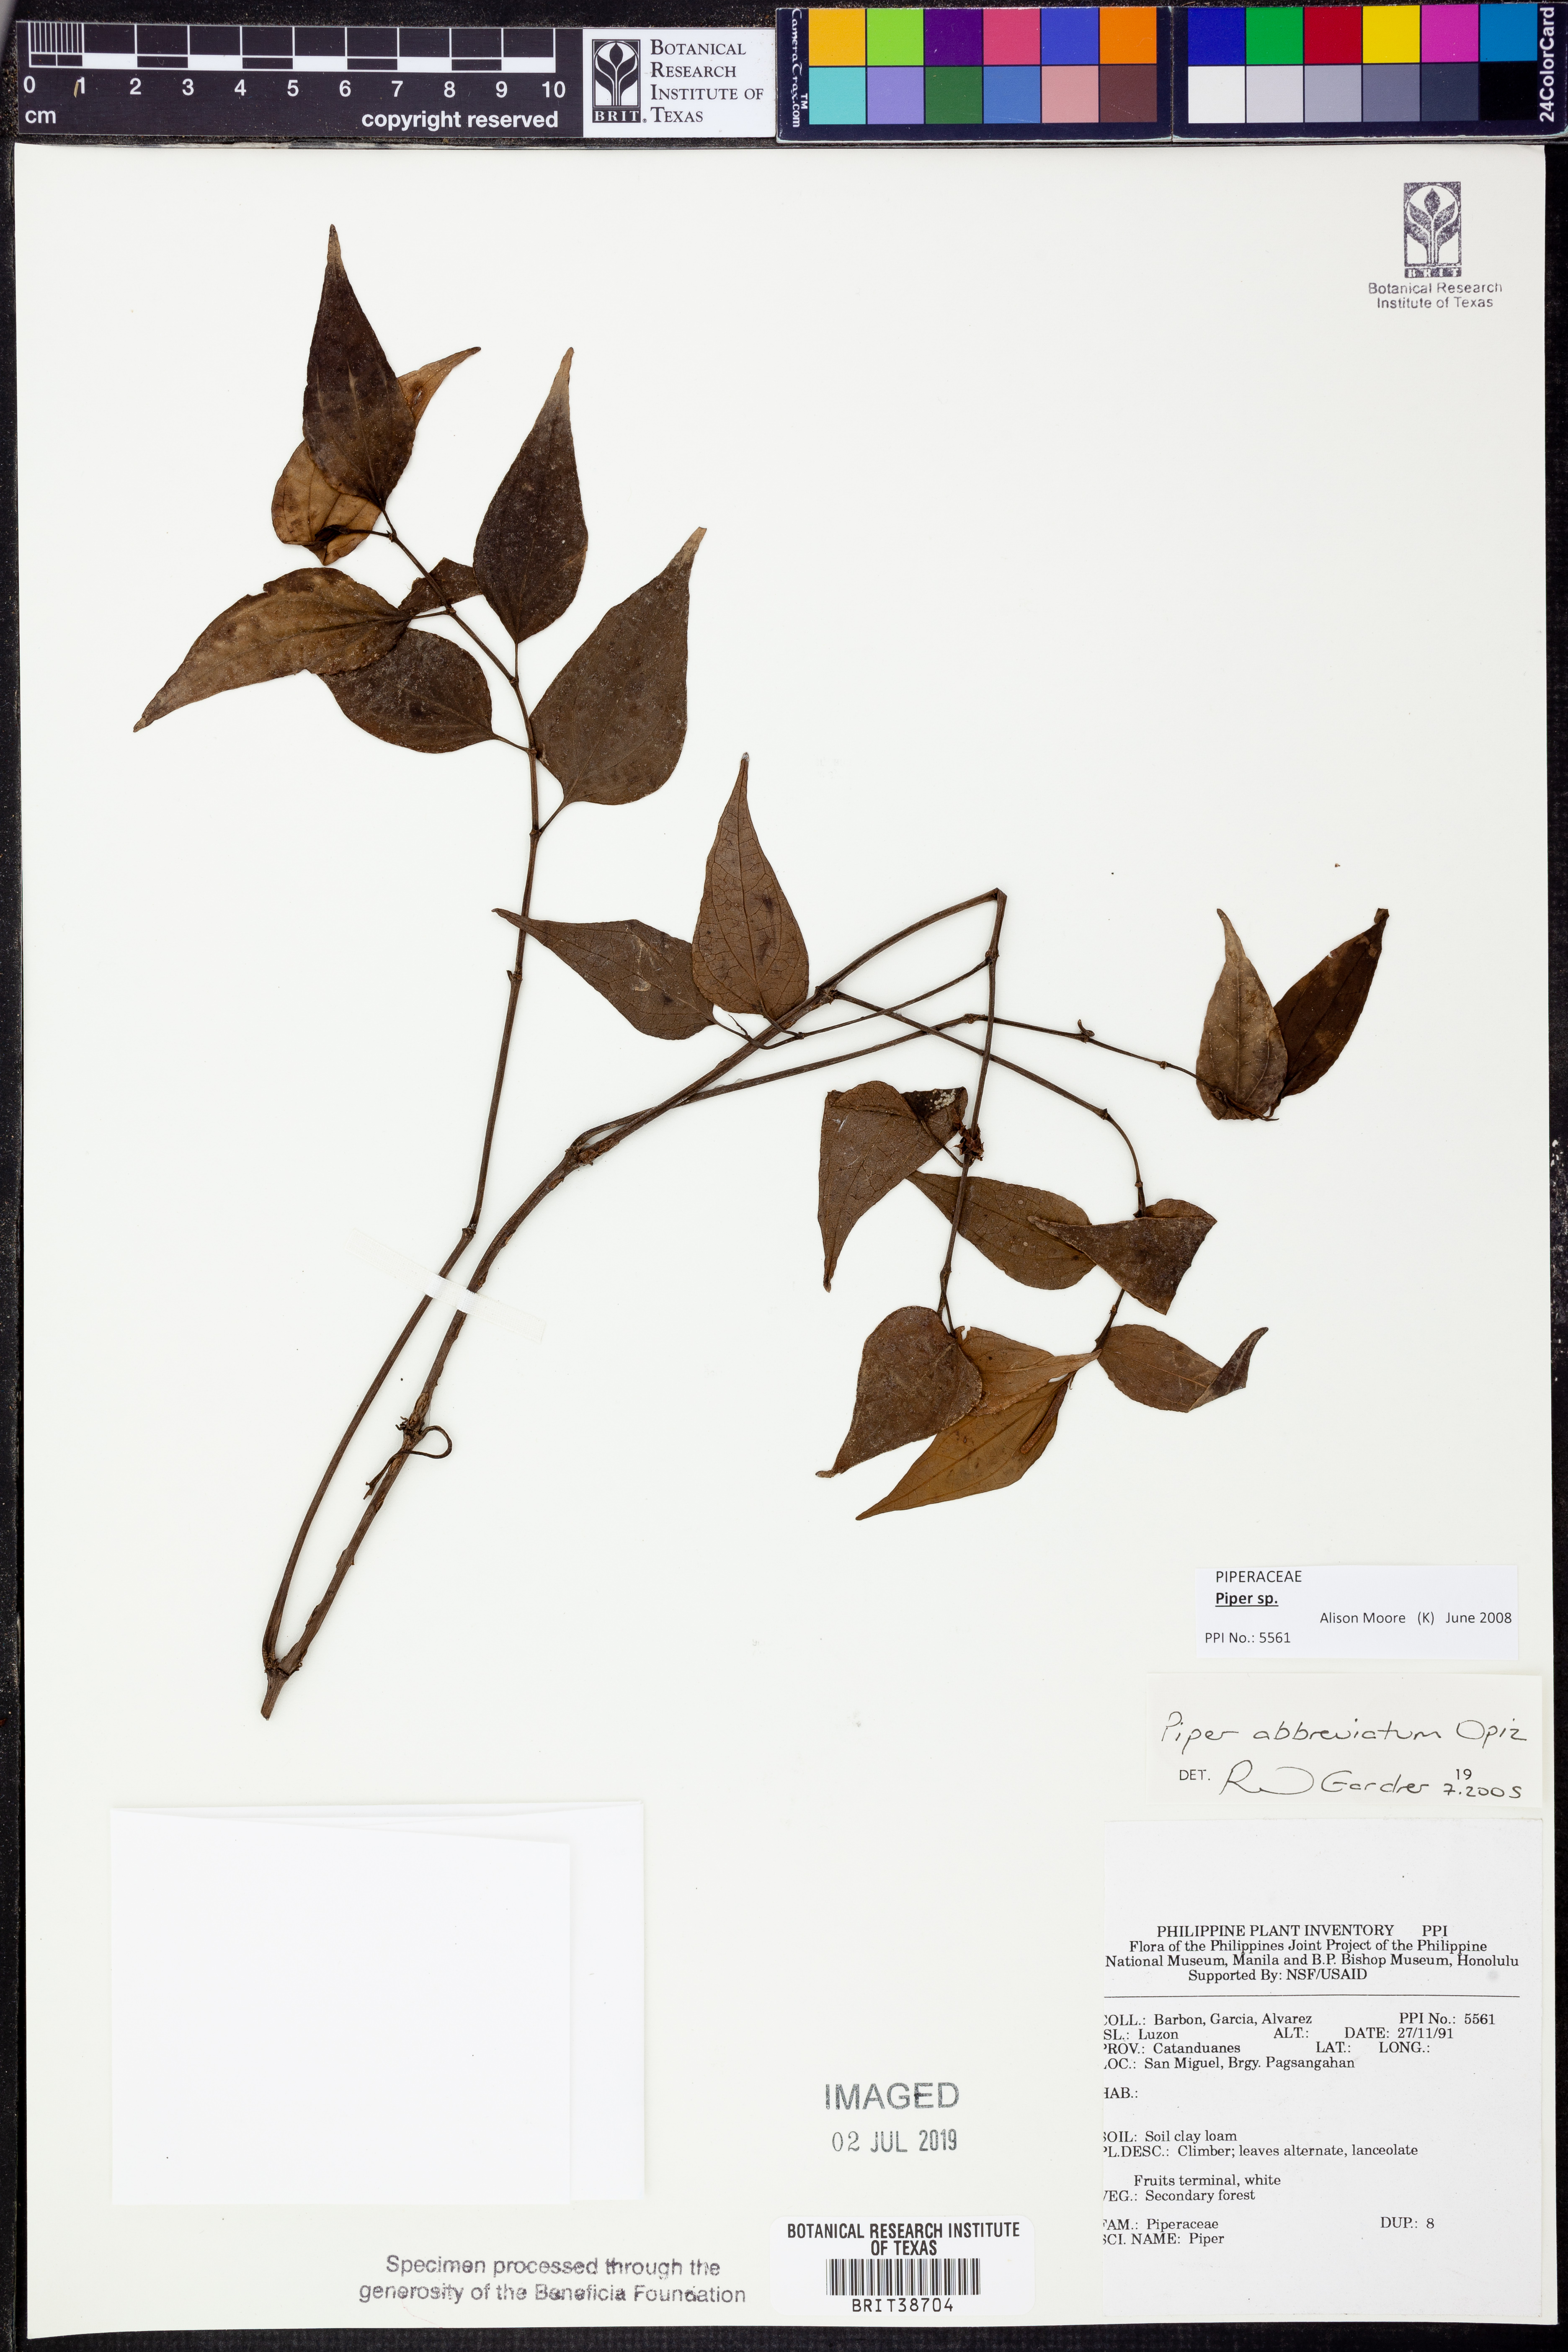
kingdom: Plantae
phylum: Tracheophyta
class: Magnoliopsida
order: Piperales
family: Piperaceae
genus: Piper
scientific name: Piper
